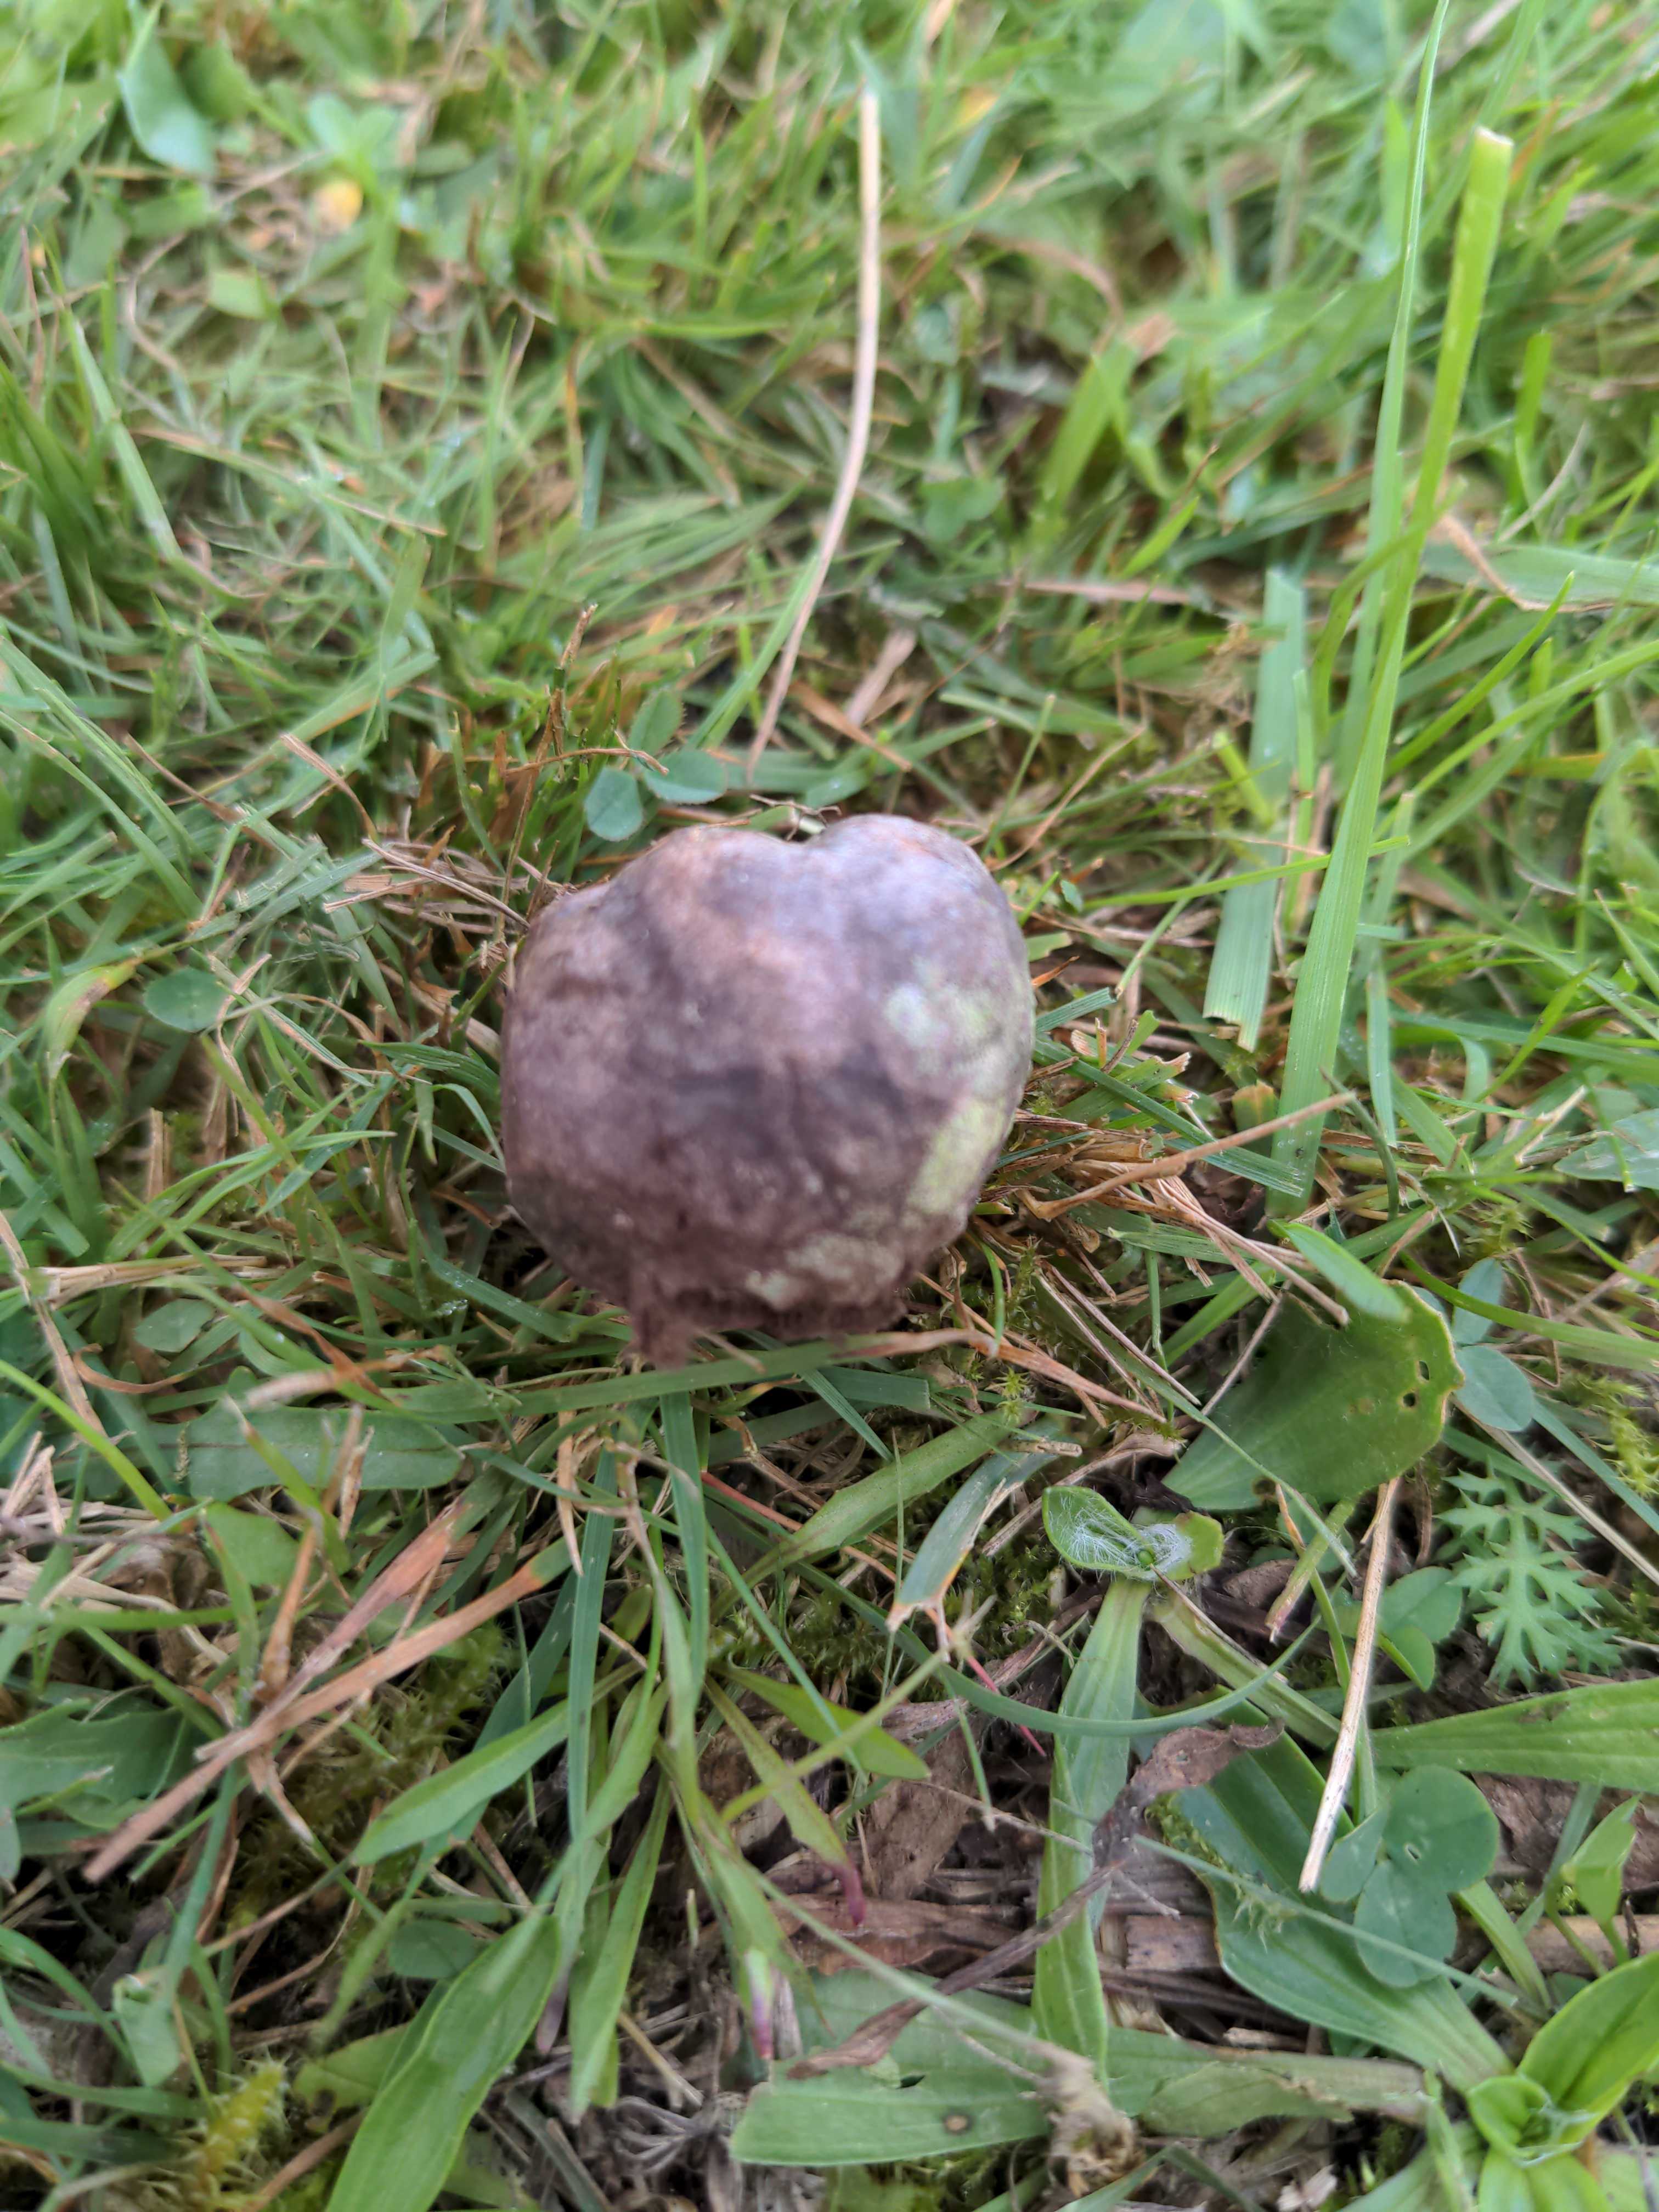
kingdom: Fungi
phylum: Basidiomycota
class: Agaricomycetes
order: Agaricales
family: Lycoperdaceae
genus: Bovista
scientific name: Bovista plumbea
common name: blygrå bovist
